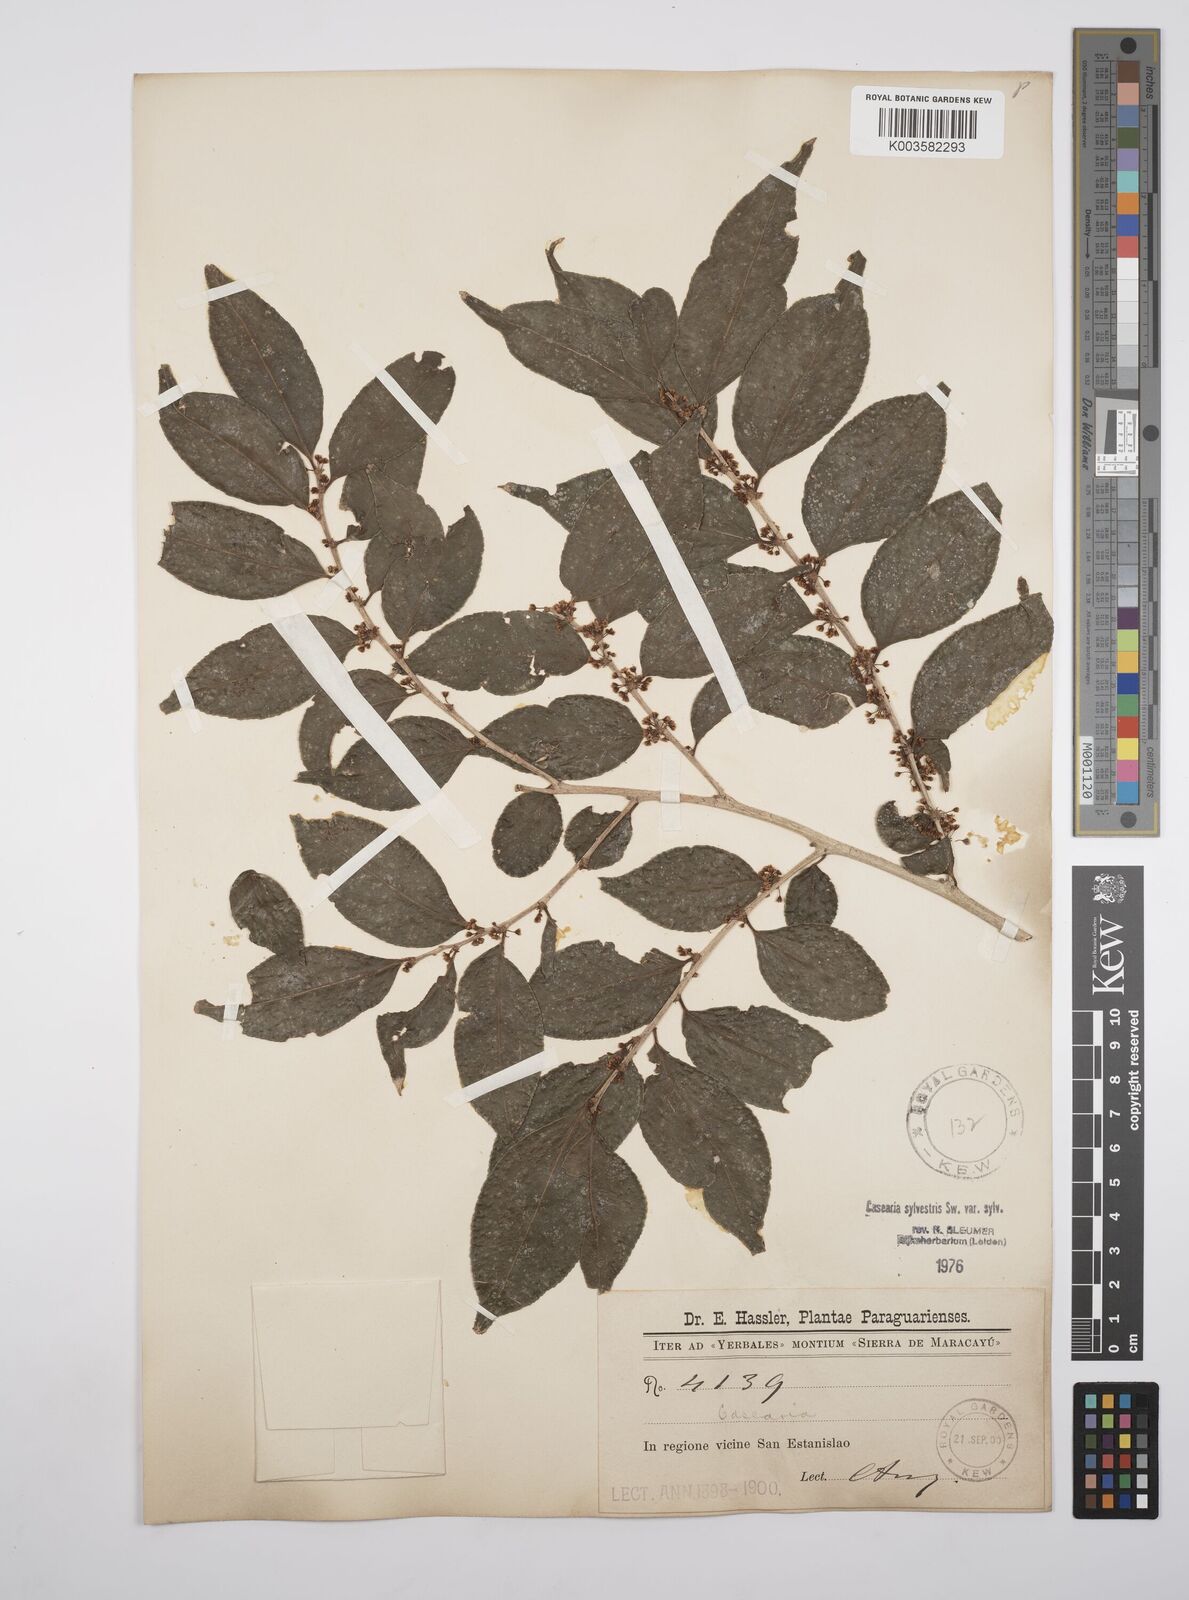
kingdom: Plantae
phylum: Tracheophyta
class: Magnoliopsida
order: Malpighiales
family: Salicaceae
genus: Casearia
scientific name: Casearia sylvestris
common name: Wild sage
